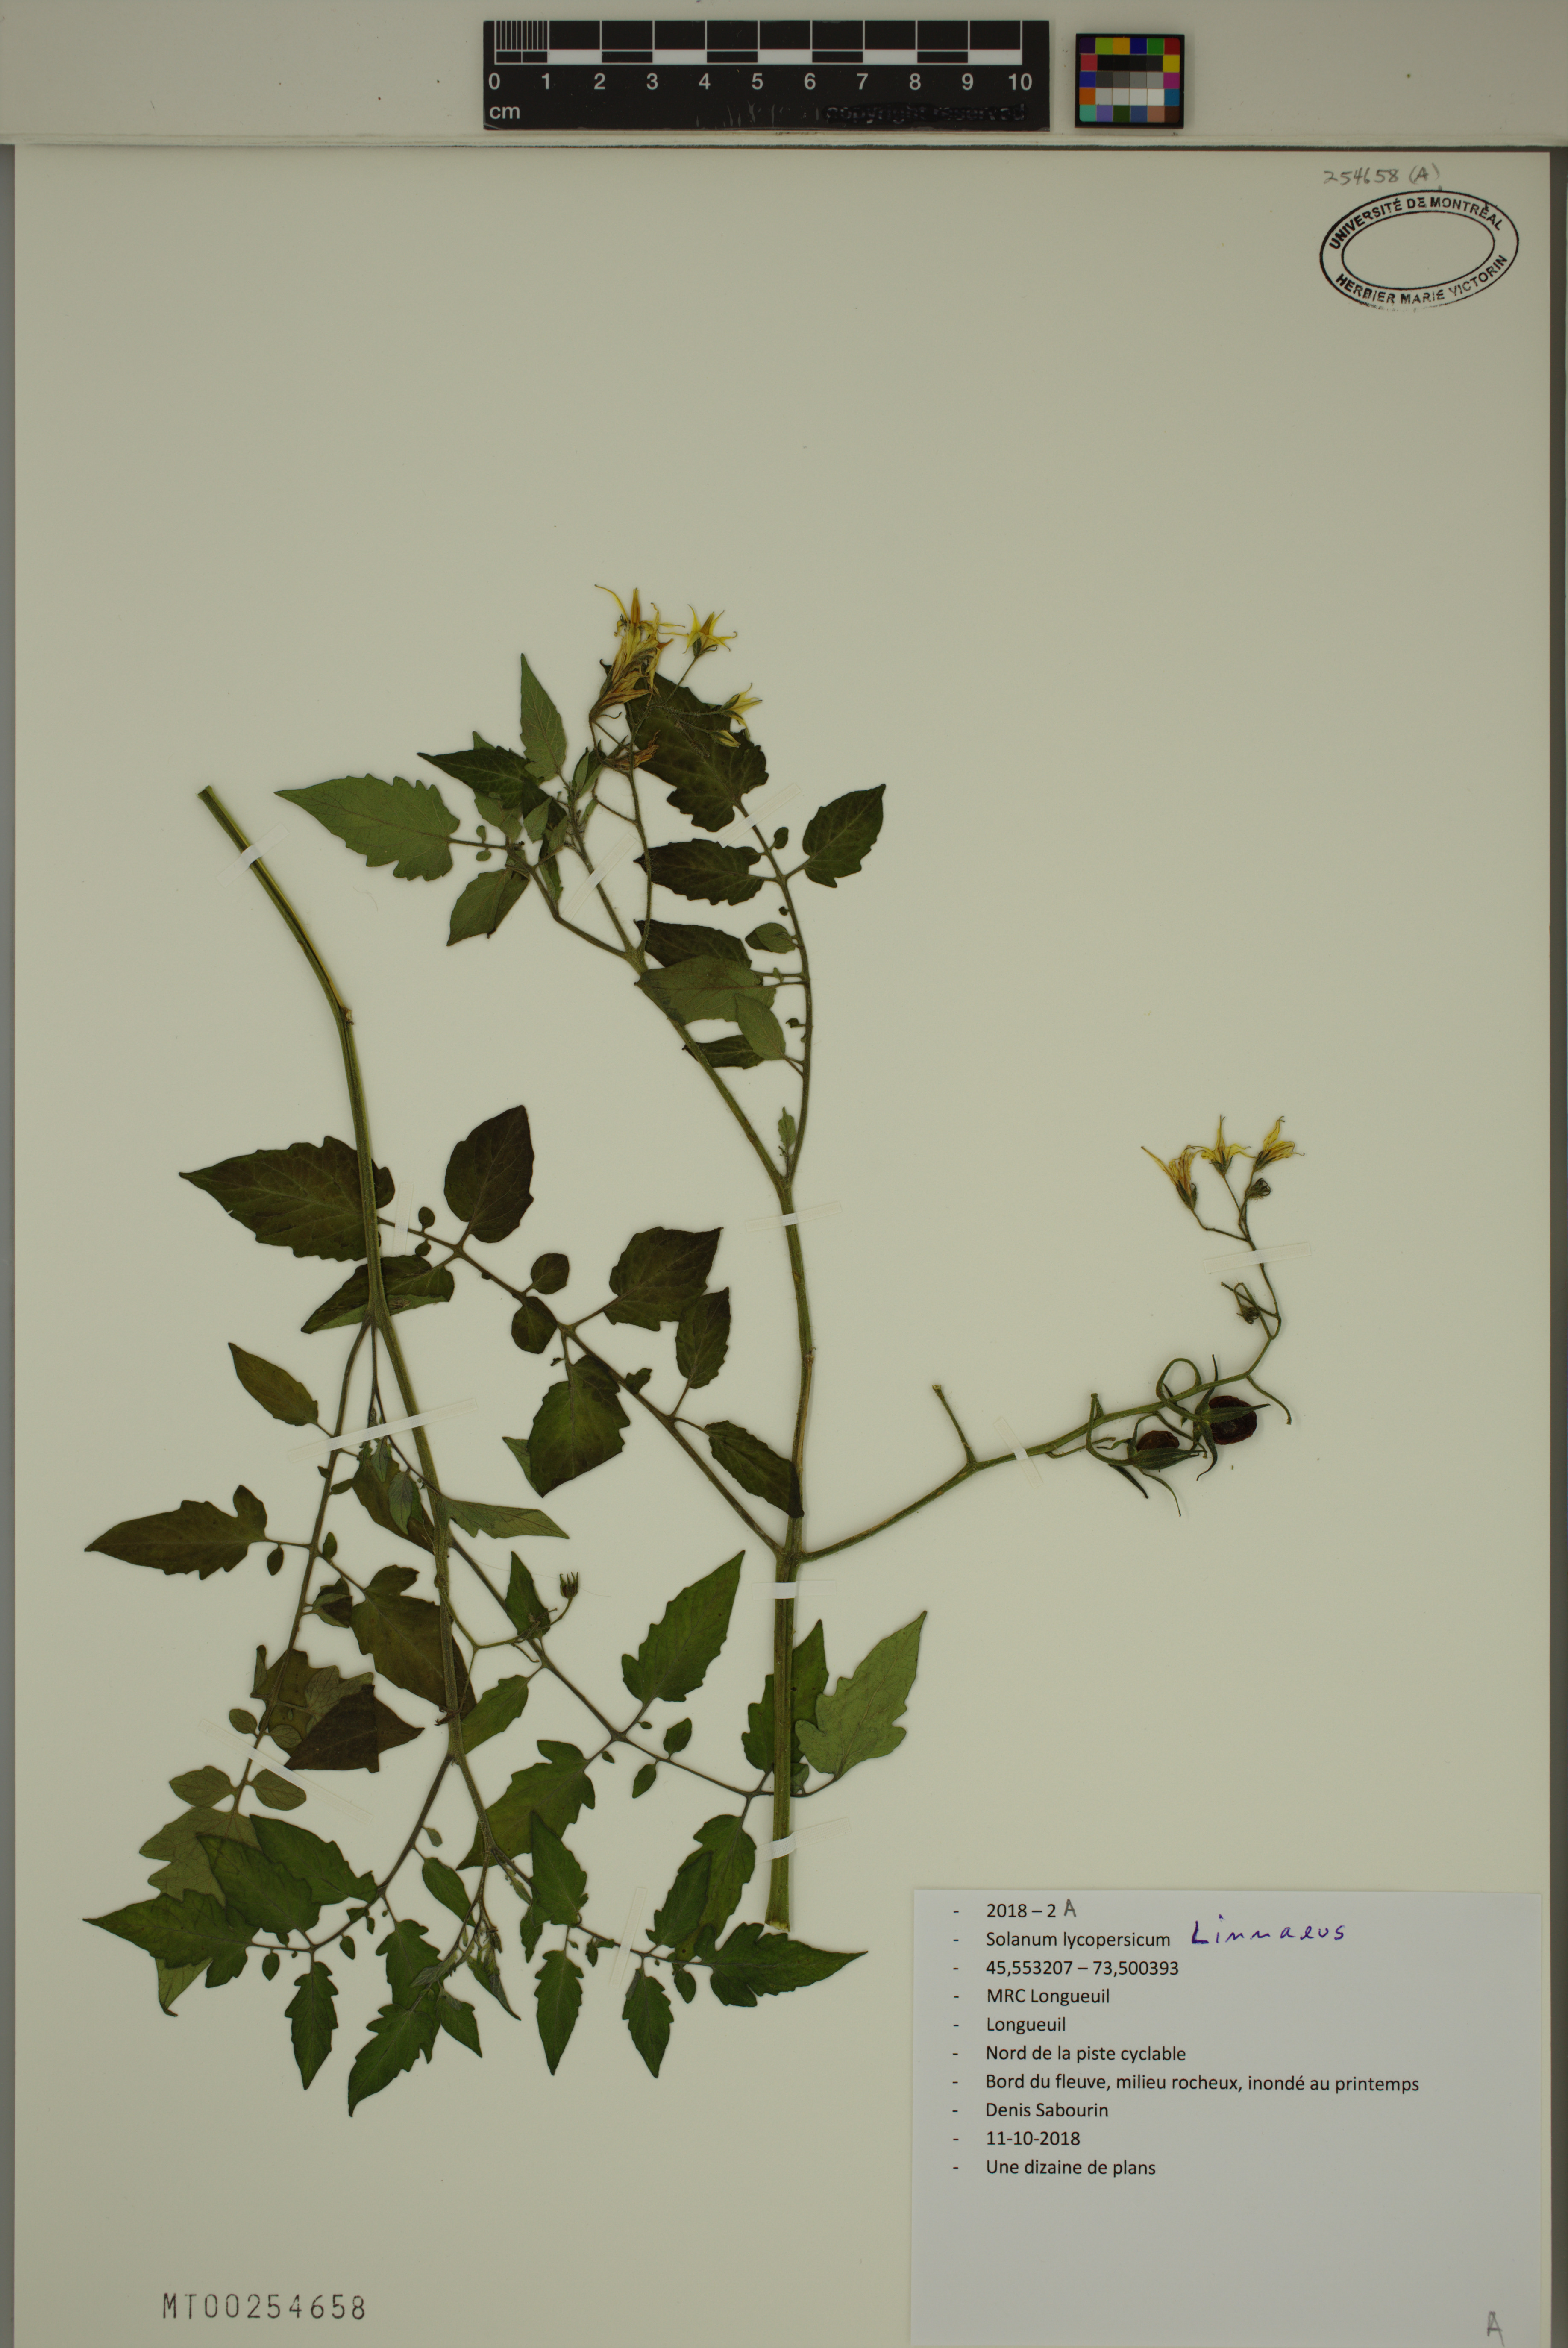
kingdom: Plantae
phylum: Tracheophyta
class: Magnoliopsida
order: Solanales
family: Solanaceae
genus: Solanum
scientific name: Solanum lycopersicum
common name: Garden tomato
